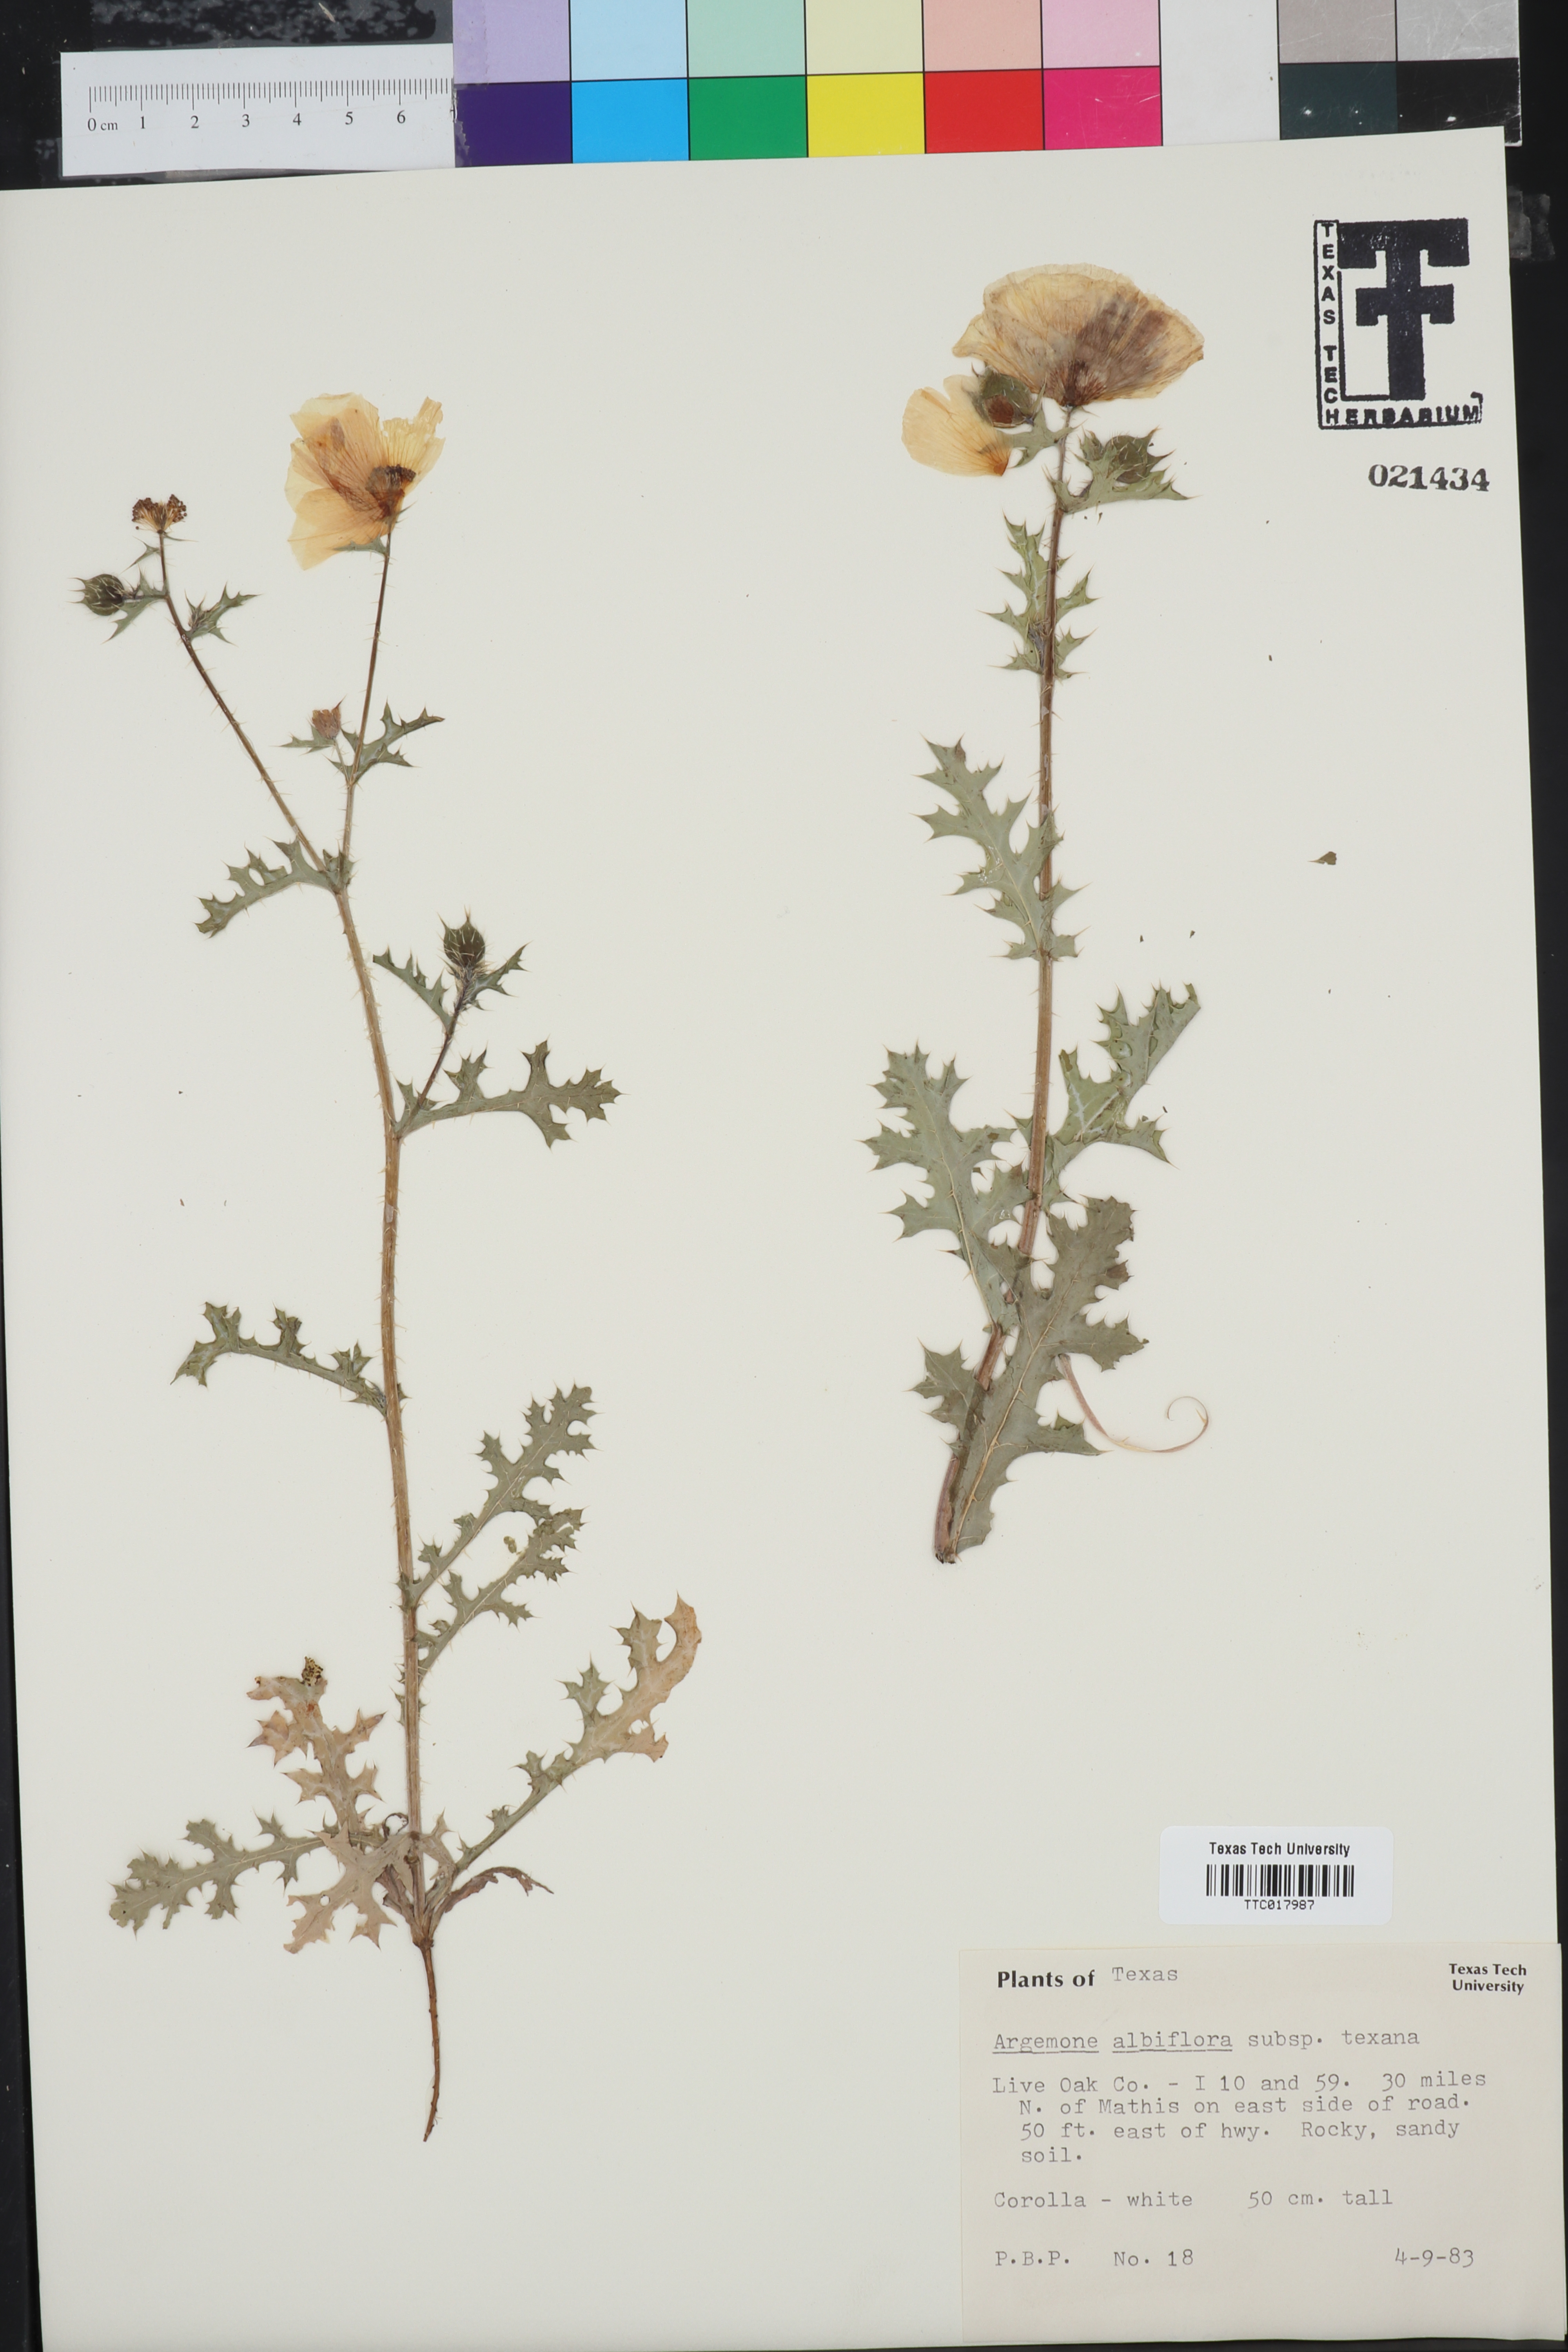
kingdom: Plantae
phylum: Tracheophyta
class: Magnoliopsida
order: Ranunculales
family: Papaveraceae
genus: Argemone
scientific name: Argemone albiflora
